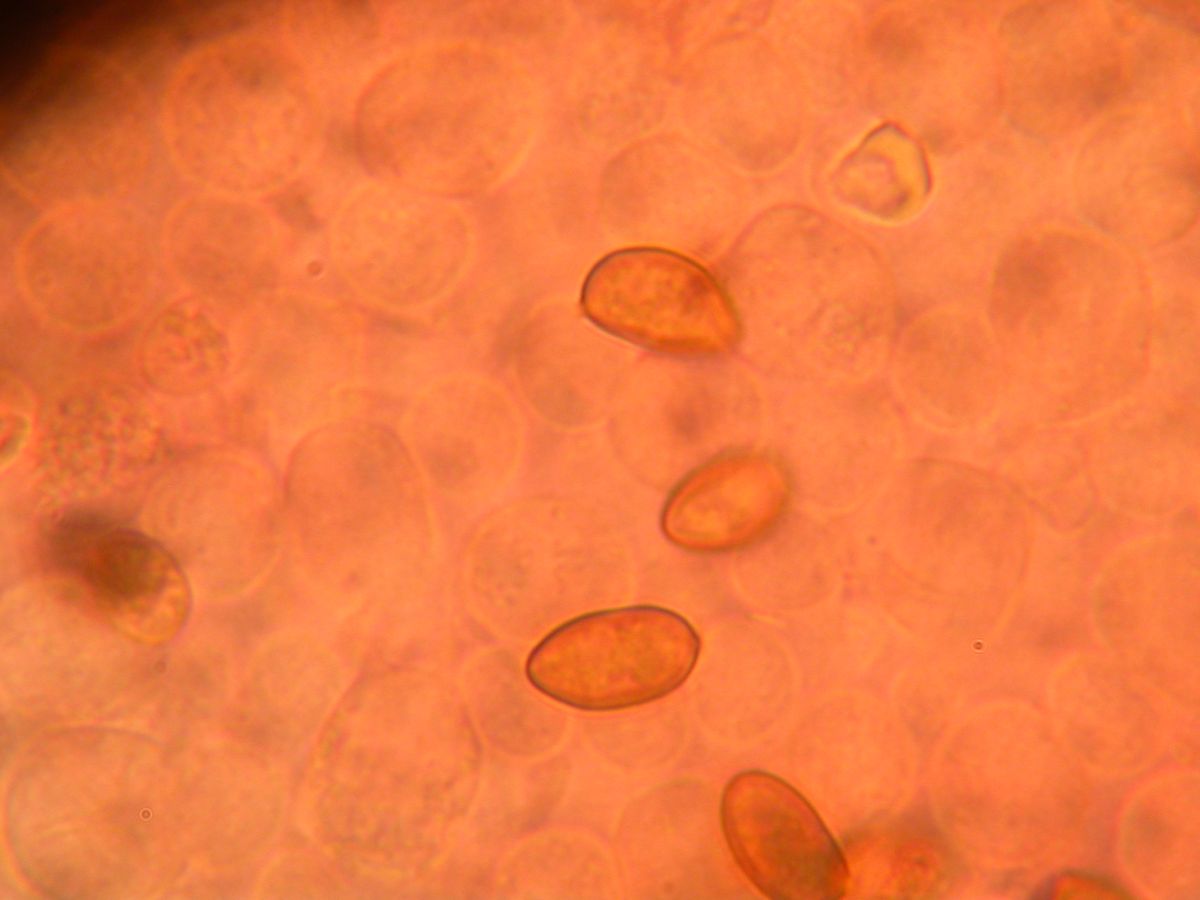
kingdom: Fungi
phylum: Basidiomycota
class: Agaricomycetes
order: Agaricales
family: Inocybaceae
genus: Inocybe
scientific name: Inocybe subnudipes
